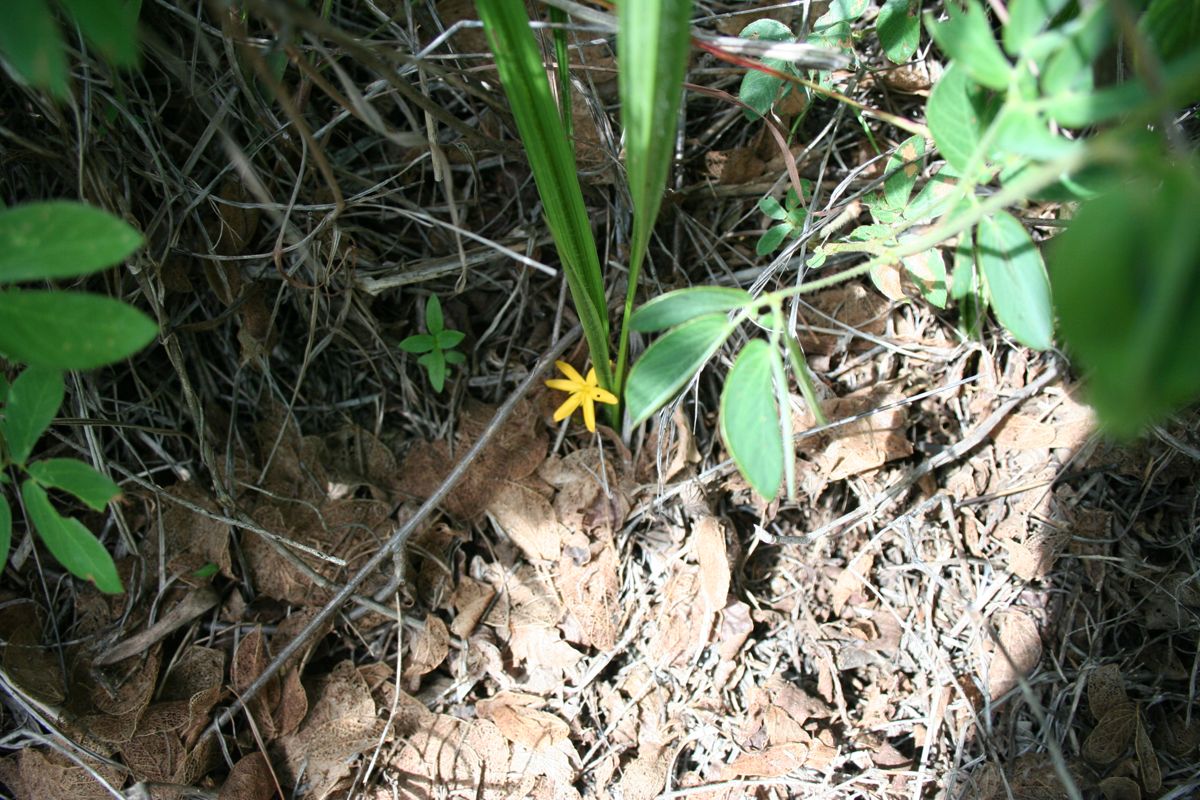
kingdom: Plantae
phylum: Tracheophyta
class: Liliopsida
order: Asparagales
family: Hypoxidaceae
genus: Hypoxis
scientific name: Hypoxis decumbens
